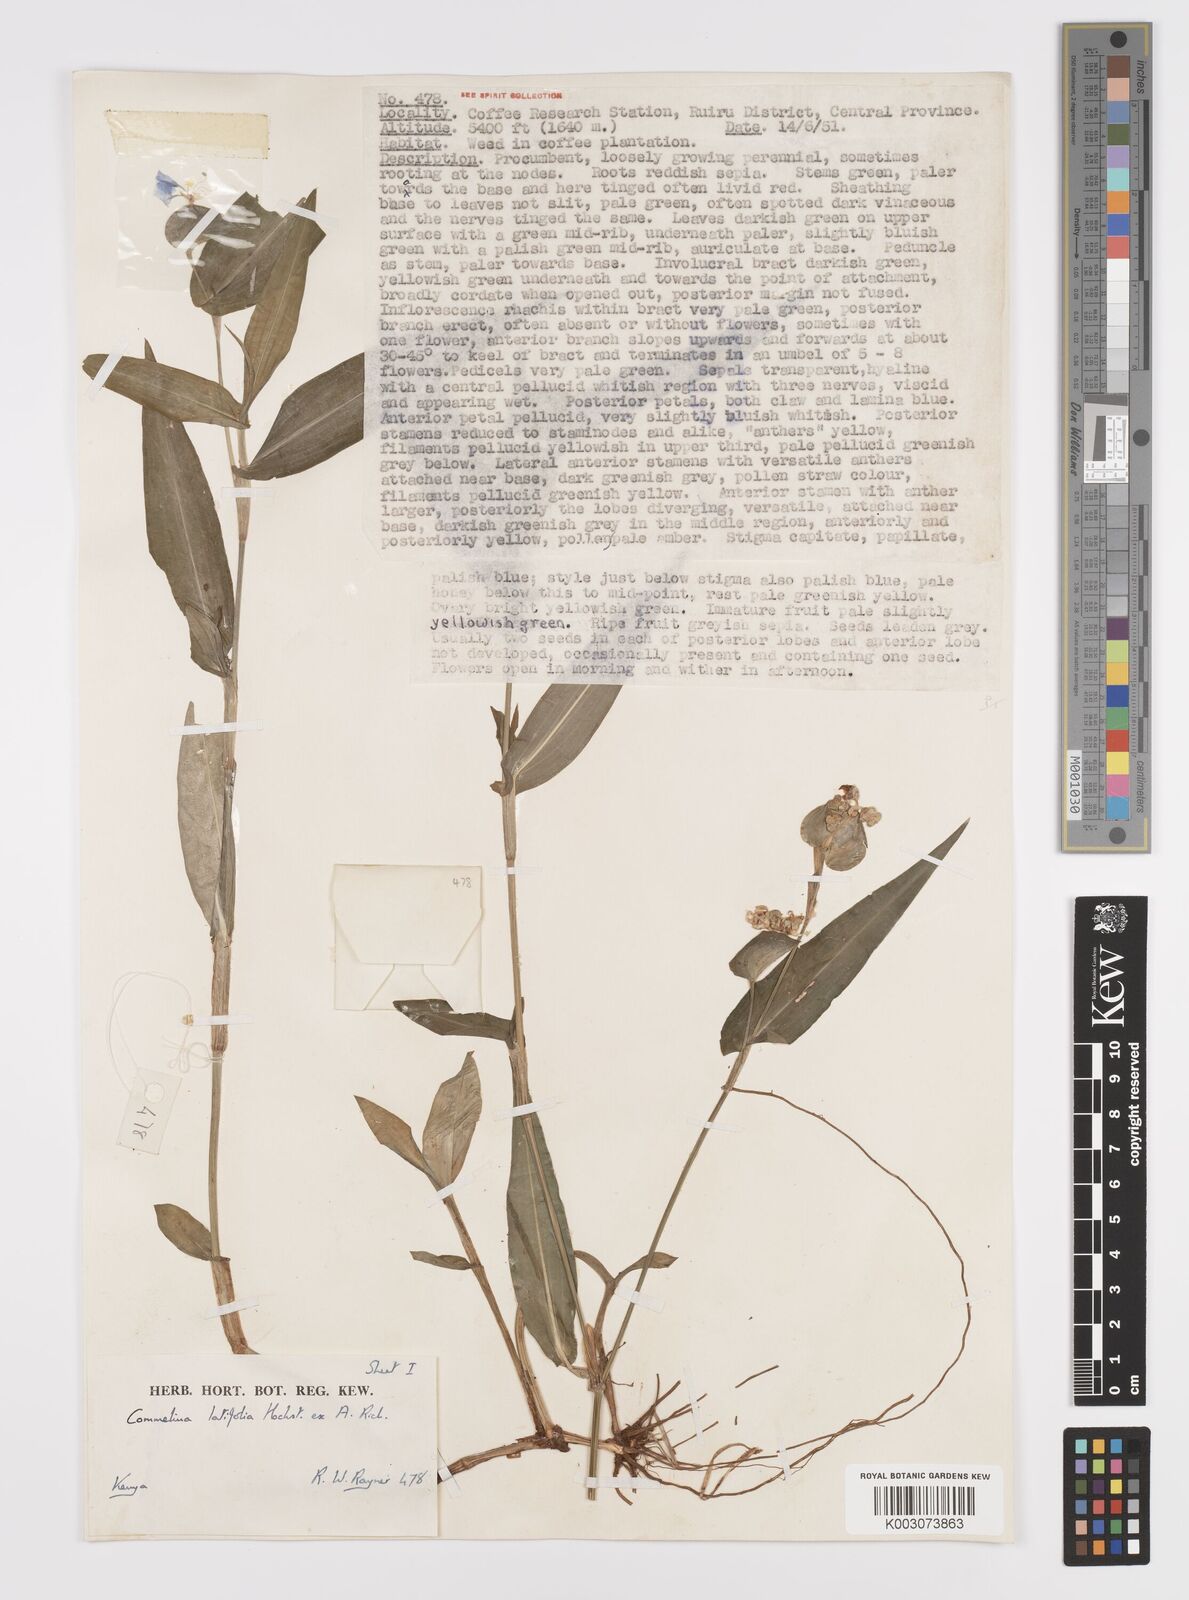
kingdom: Plantae
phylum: Tracheophyta
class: Liliopsida
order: Commelinales
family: Commelinaceae
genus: Commelina
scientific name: Commelina latifolia
